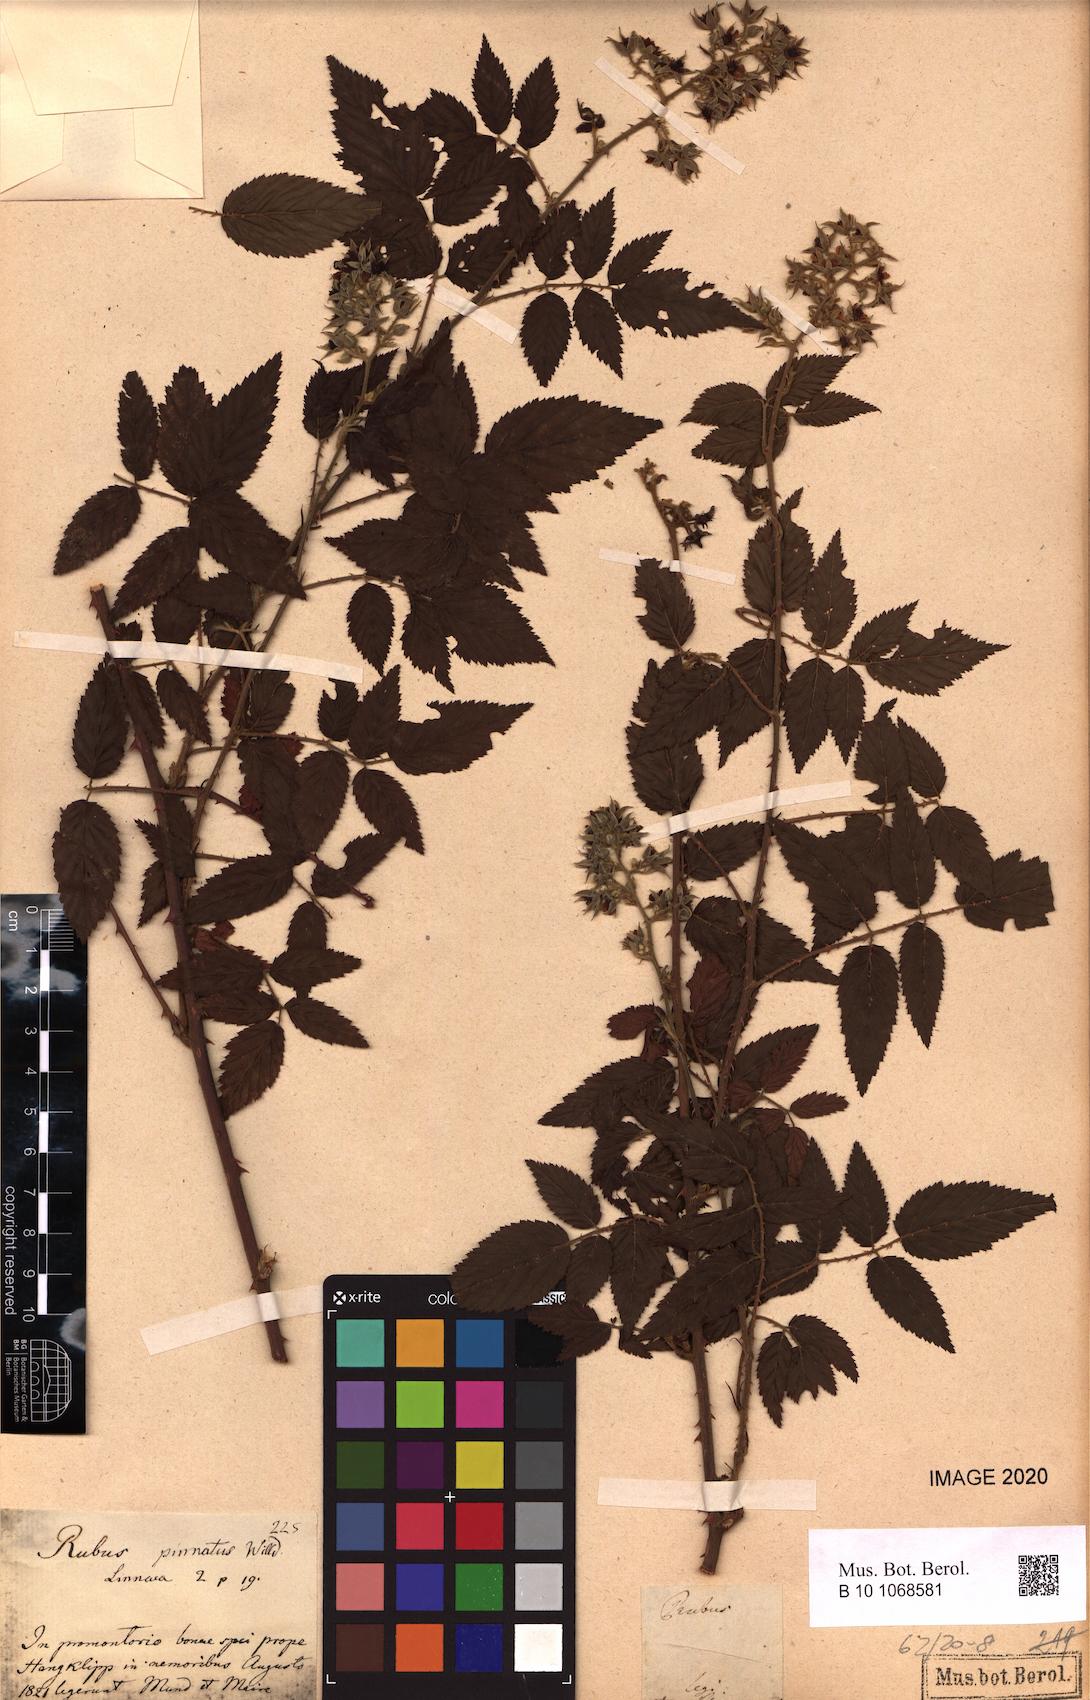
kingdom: Plantae
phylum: Tracheophyta
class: Magnoliopsida
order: Rosales
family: Rosaceae
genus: Rubus
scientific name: Rubus pinnatus
